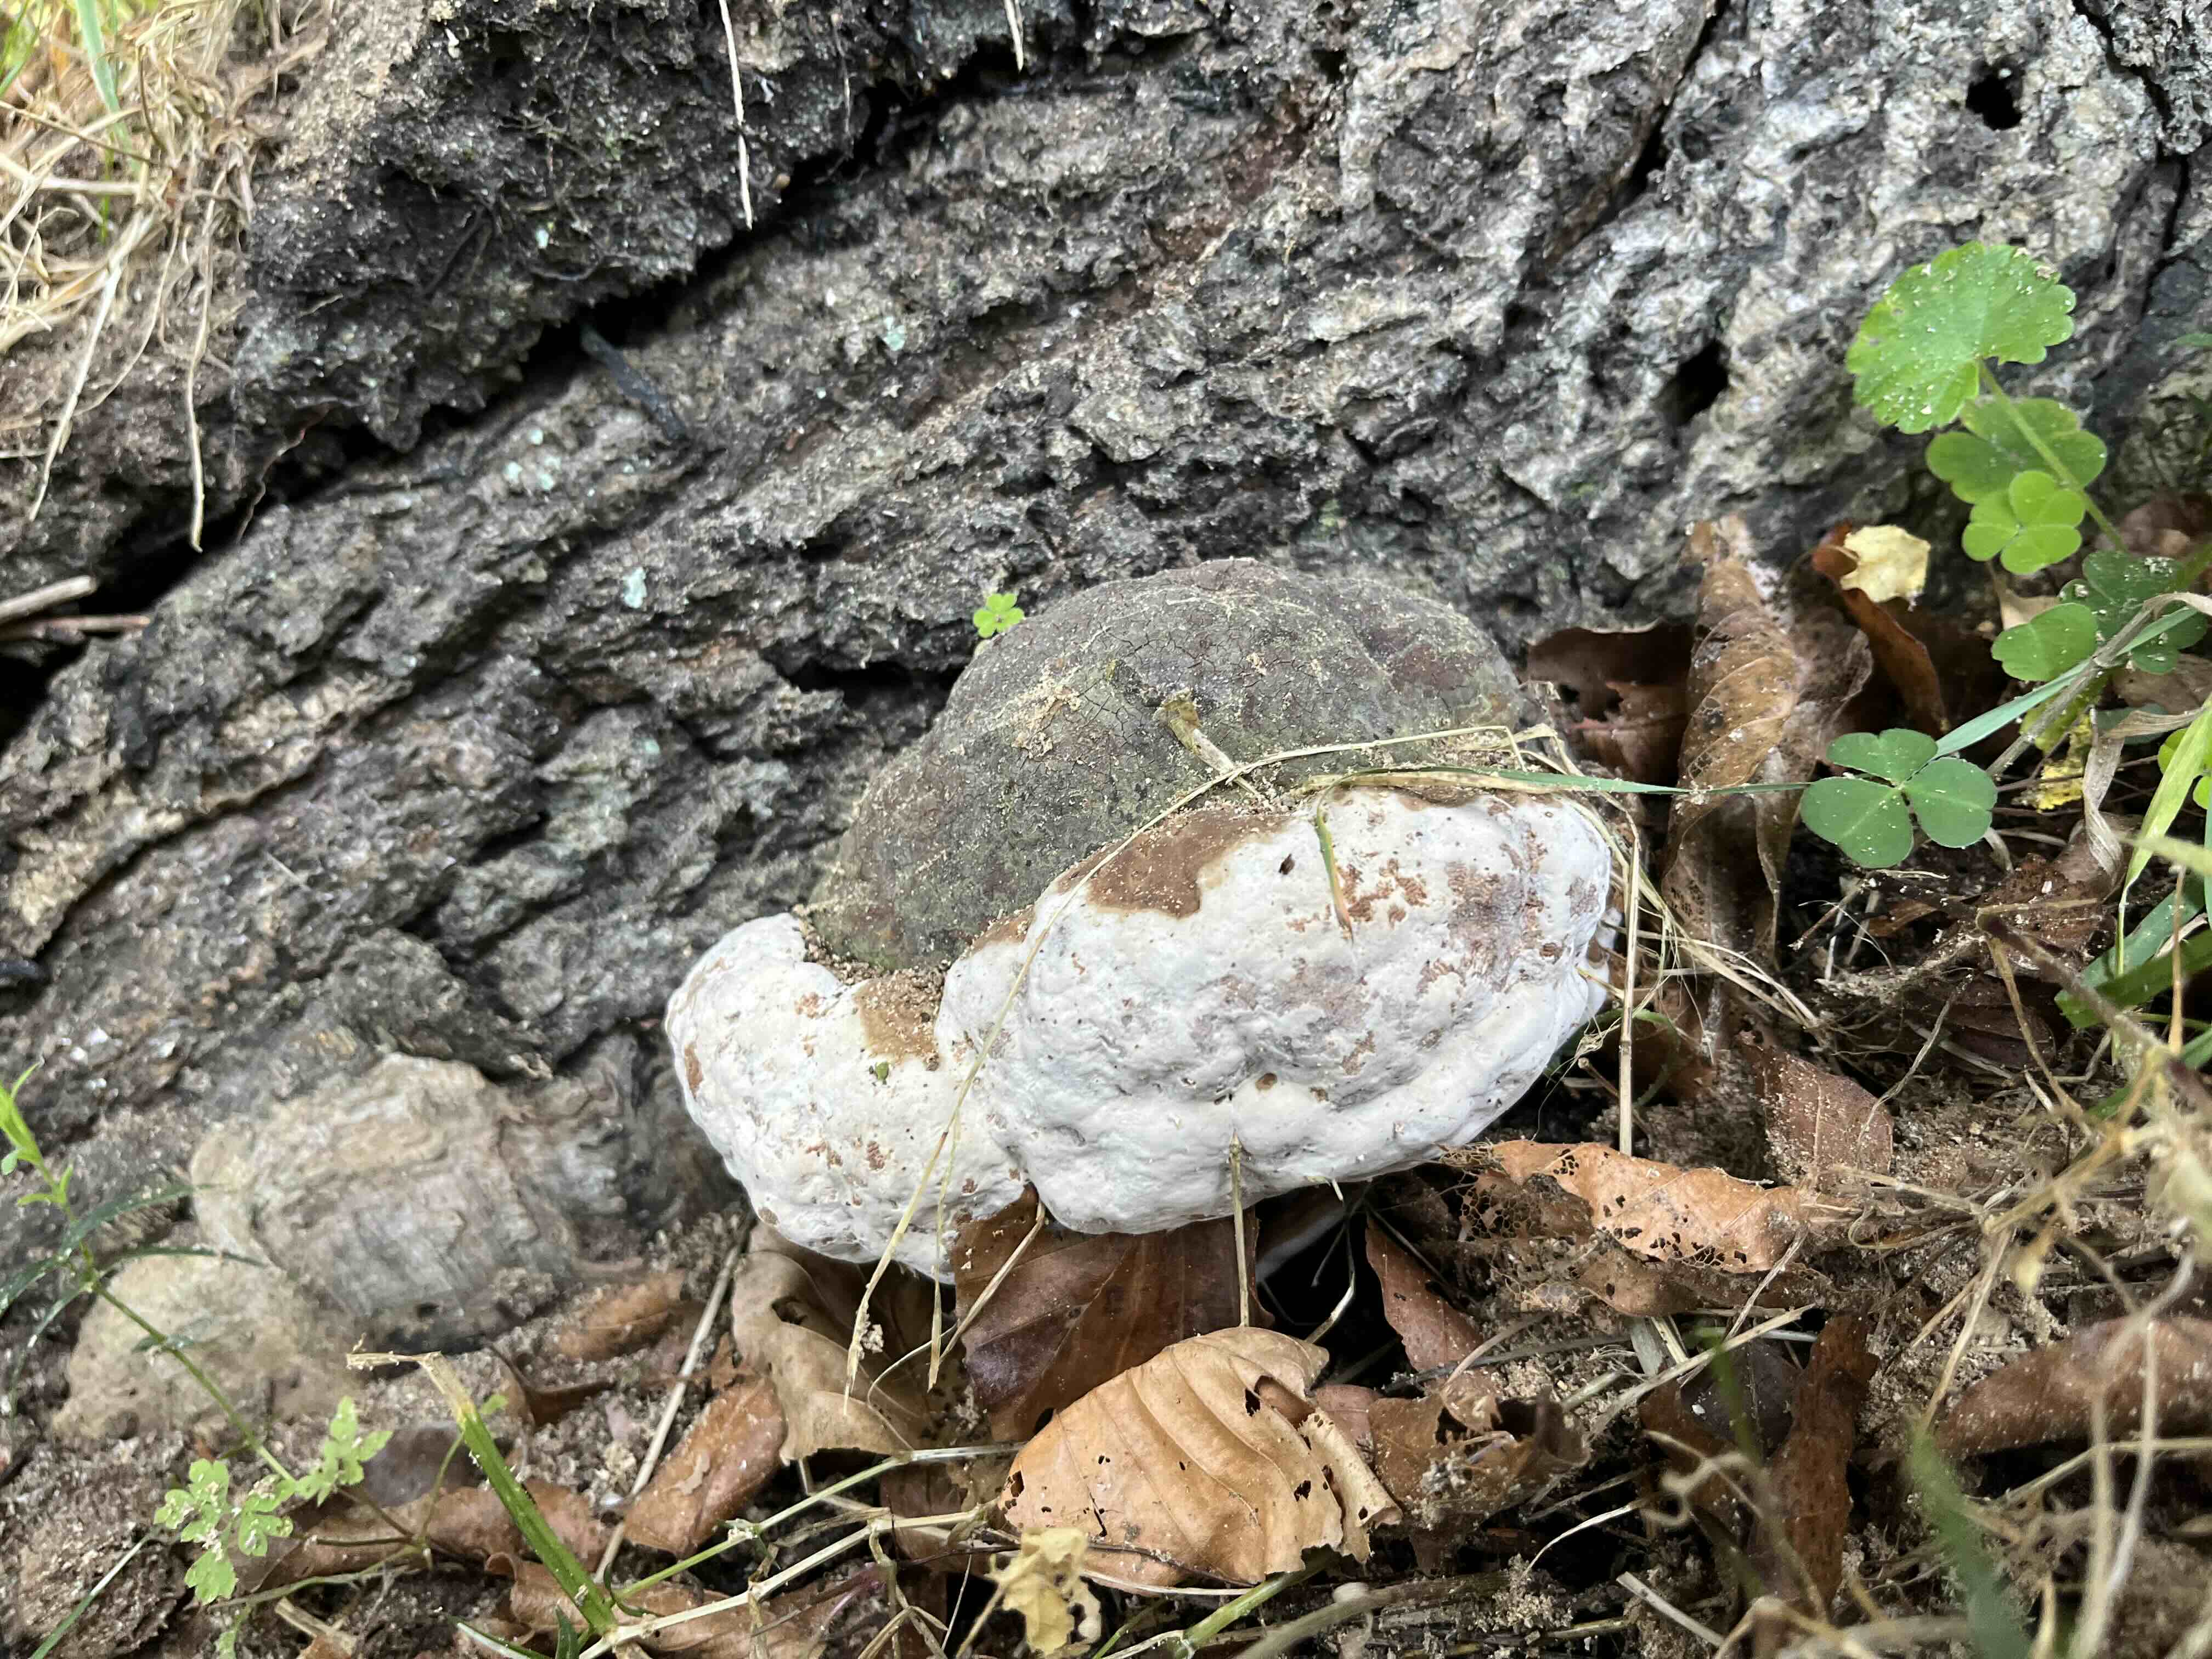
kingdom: Fungi
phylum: Basidiomycota
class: Agaricomycetes
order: Polyporales
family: Polyporaceae
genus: Fomes
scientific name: Fomes fomentarius
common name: tøndersvamp
